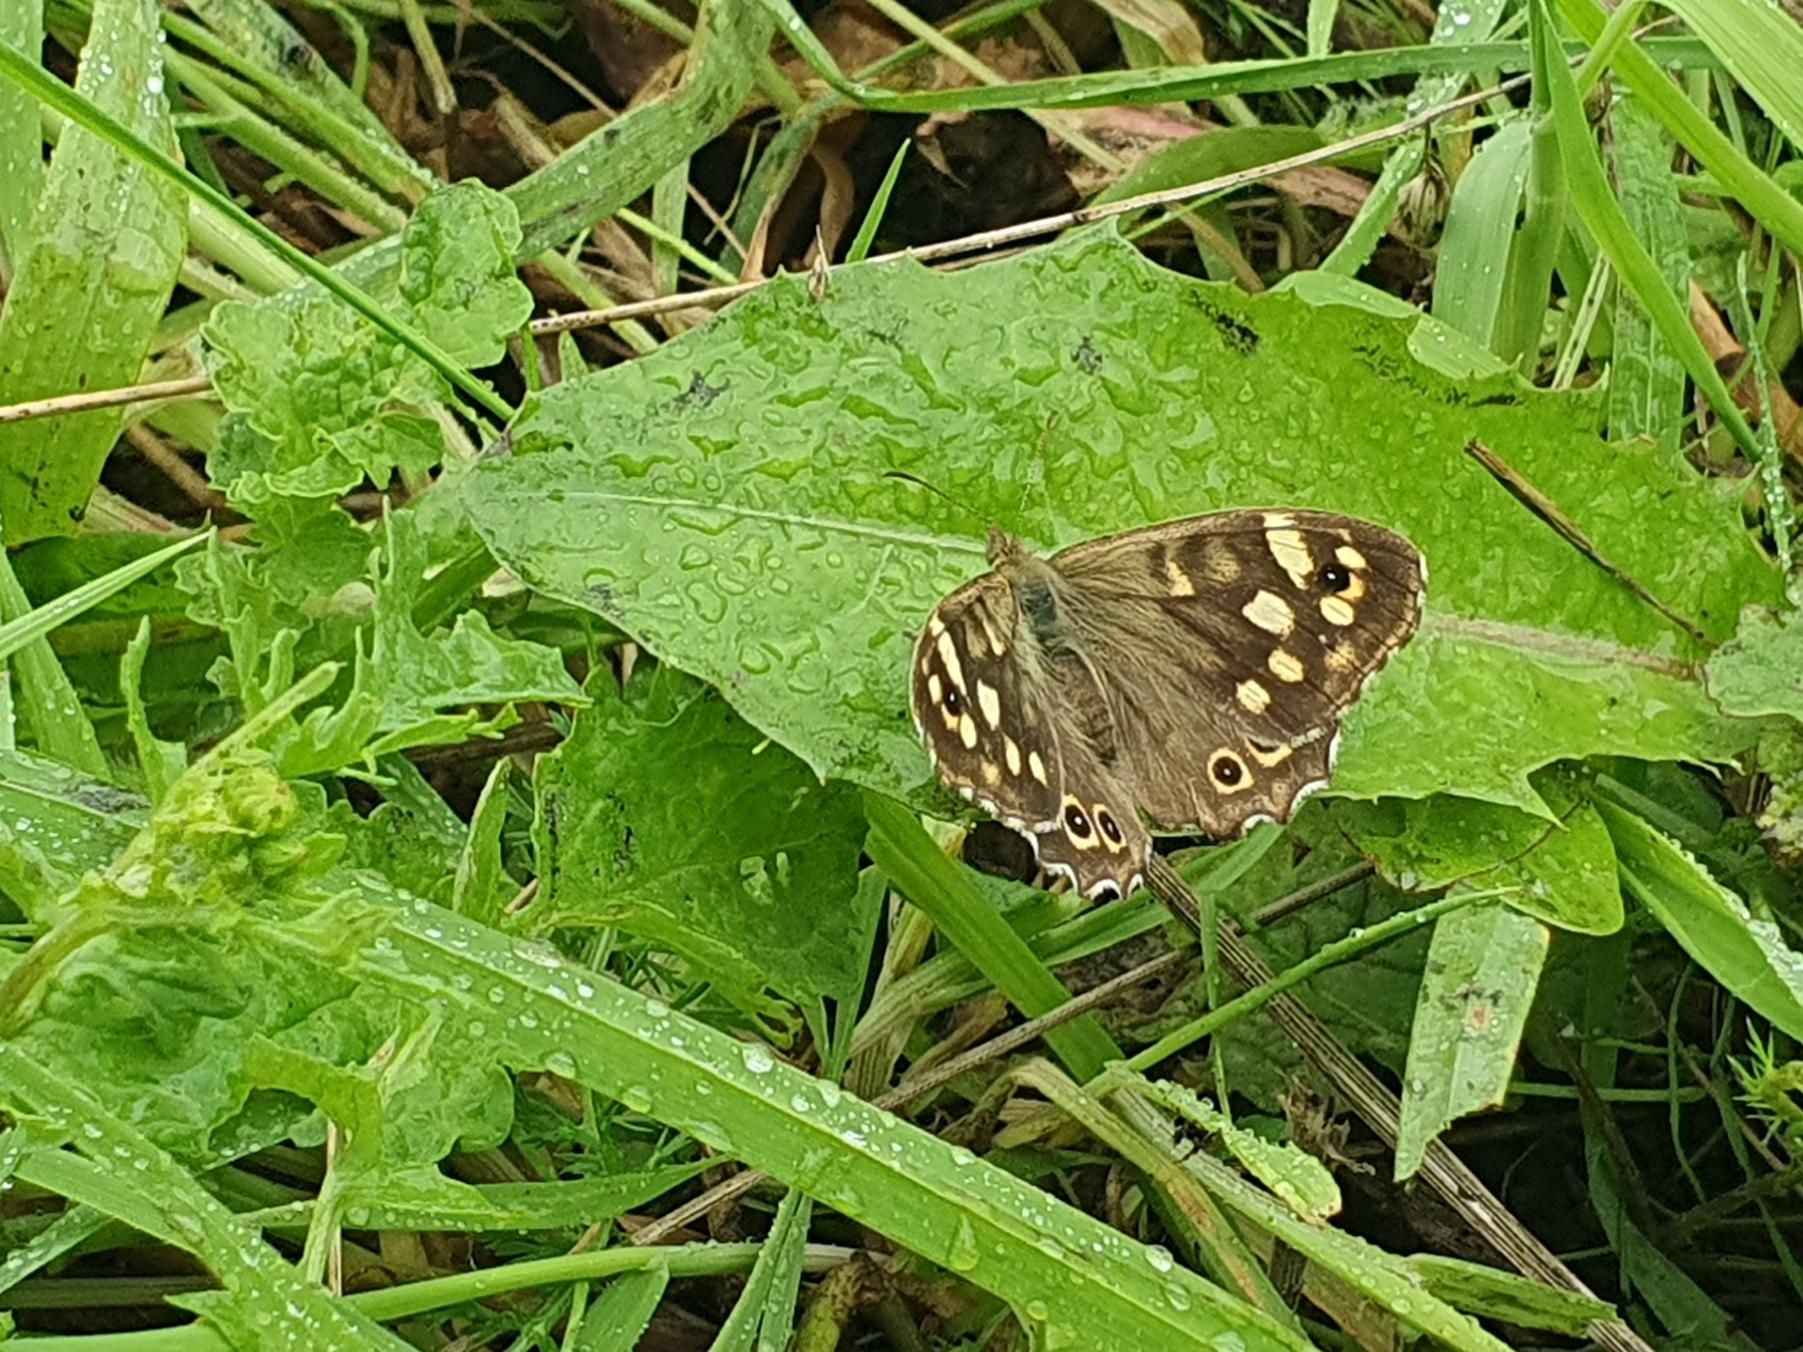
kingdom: Animalia
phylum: Arthropoda
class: Insecta
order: Lepidoptera
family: Nymphalidae
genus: Pararge
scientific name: Pararge aegeria
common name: Skovrandøje
